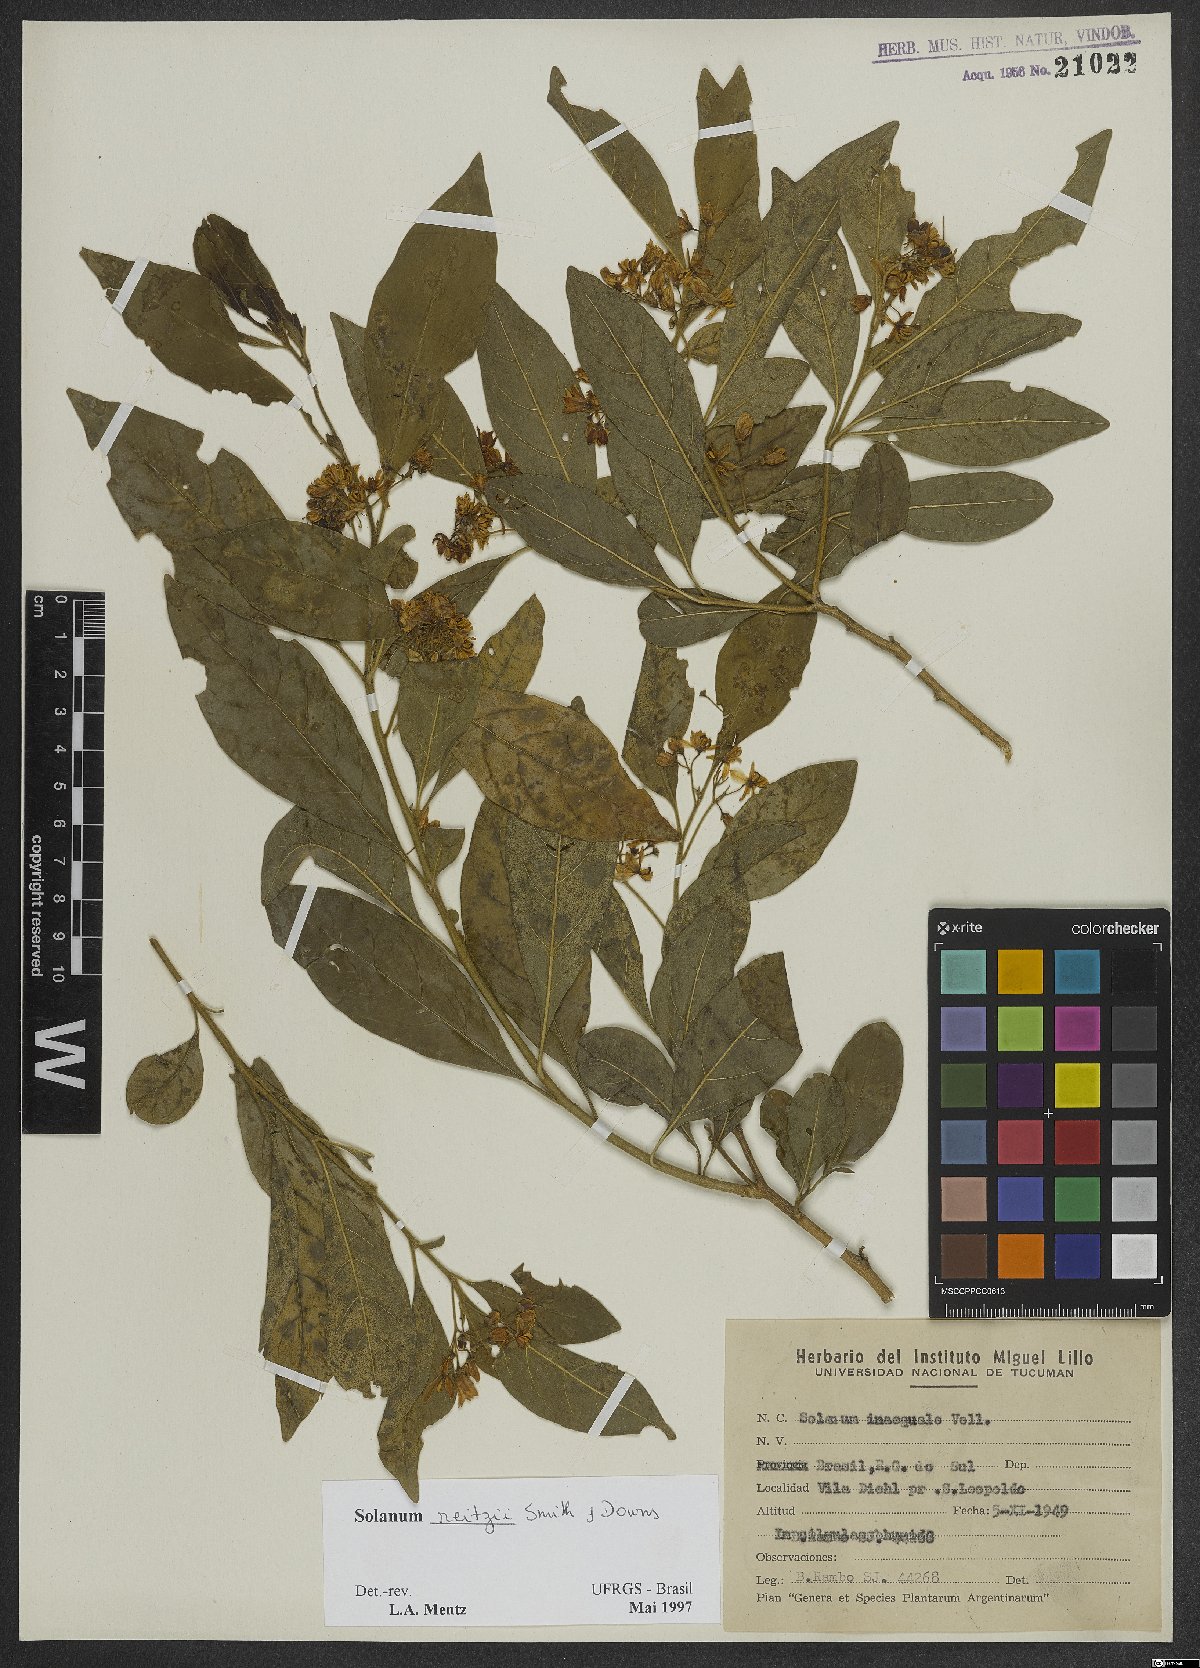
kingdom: Plantae
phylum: Tracheophyta
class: Magnoliopsida
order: Solanales
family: Solanaceae
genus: Solanum
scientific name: Solanum reitzii
